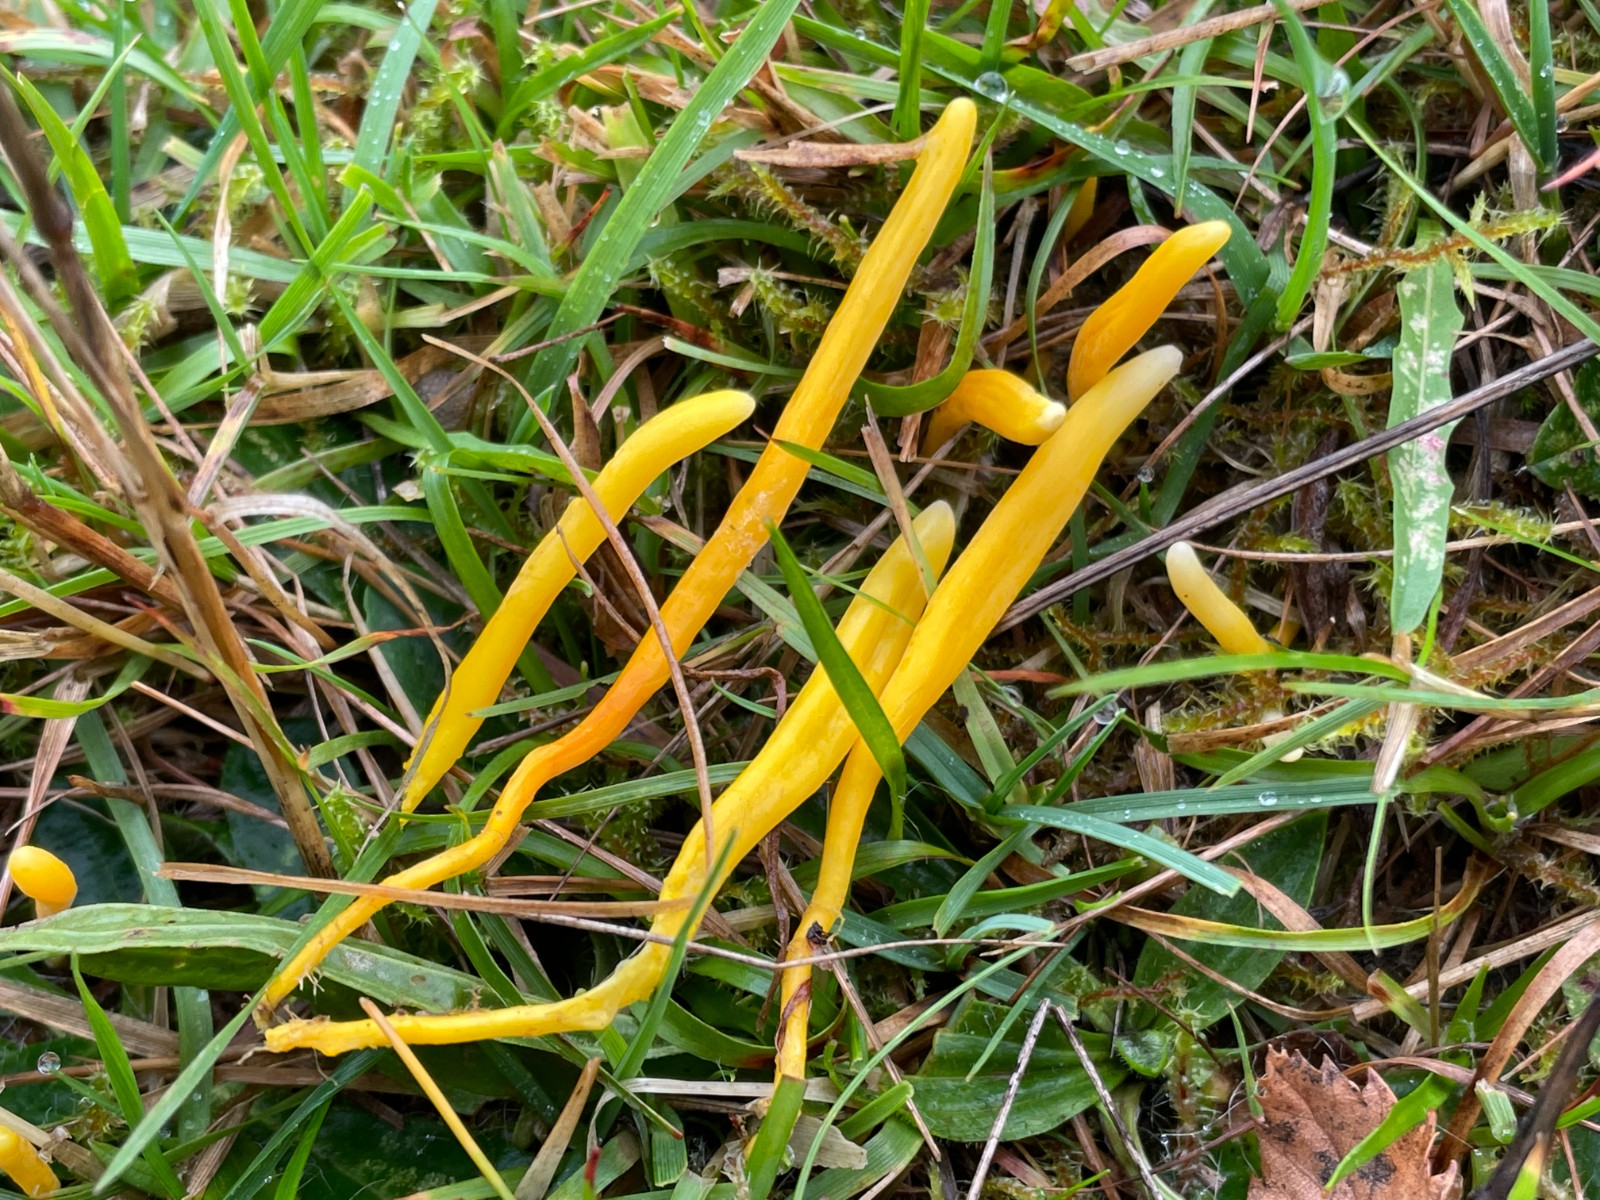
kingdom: Fungi
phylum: Basidiomycota
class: Agaricomycetes
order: Agaricales
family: Clavariaceae
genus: Clavulinopsis
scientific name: Clavulinopsis laeticolor
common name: flamme-køllesvamp
